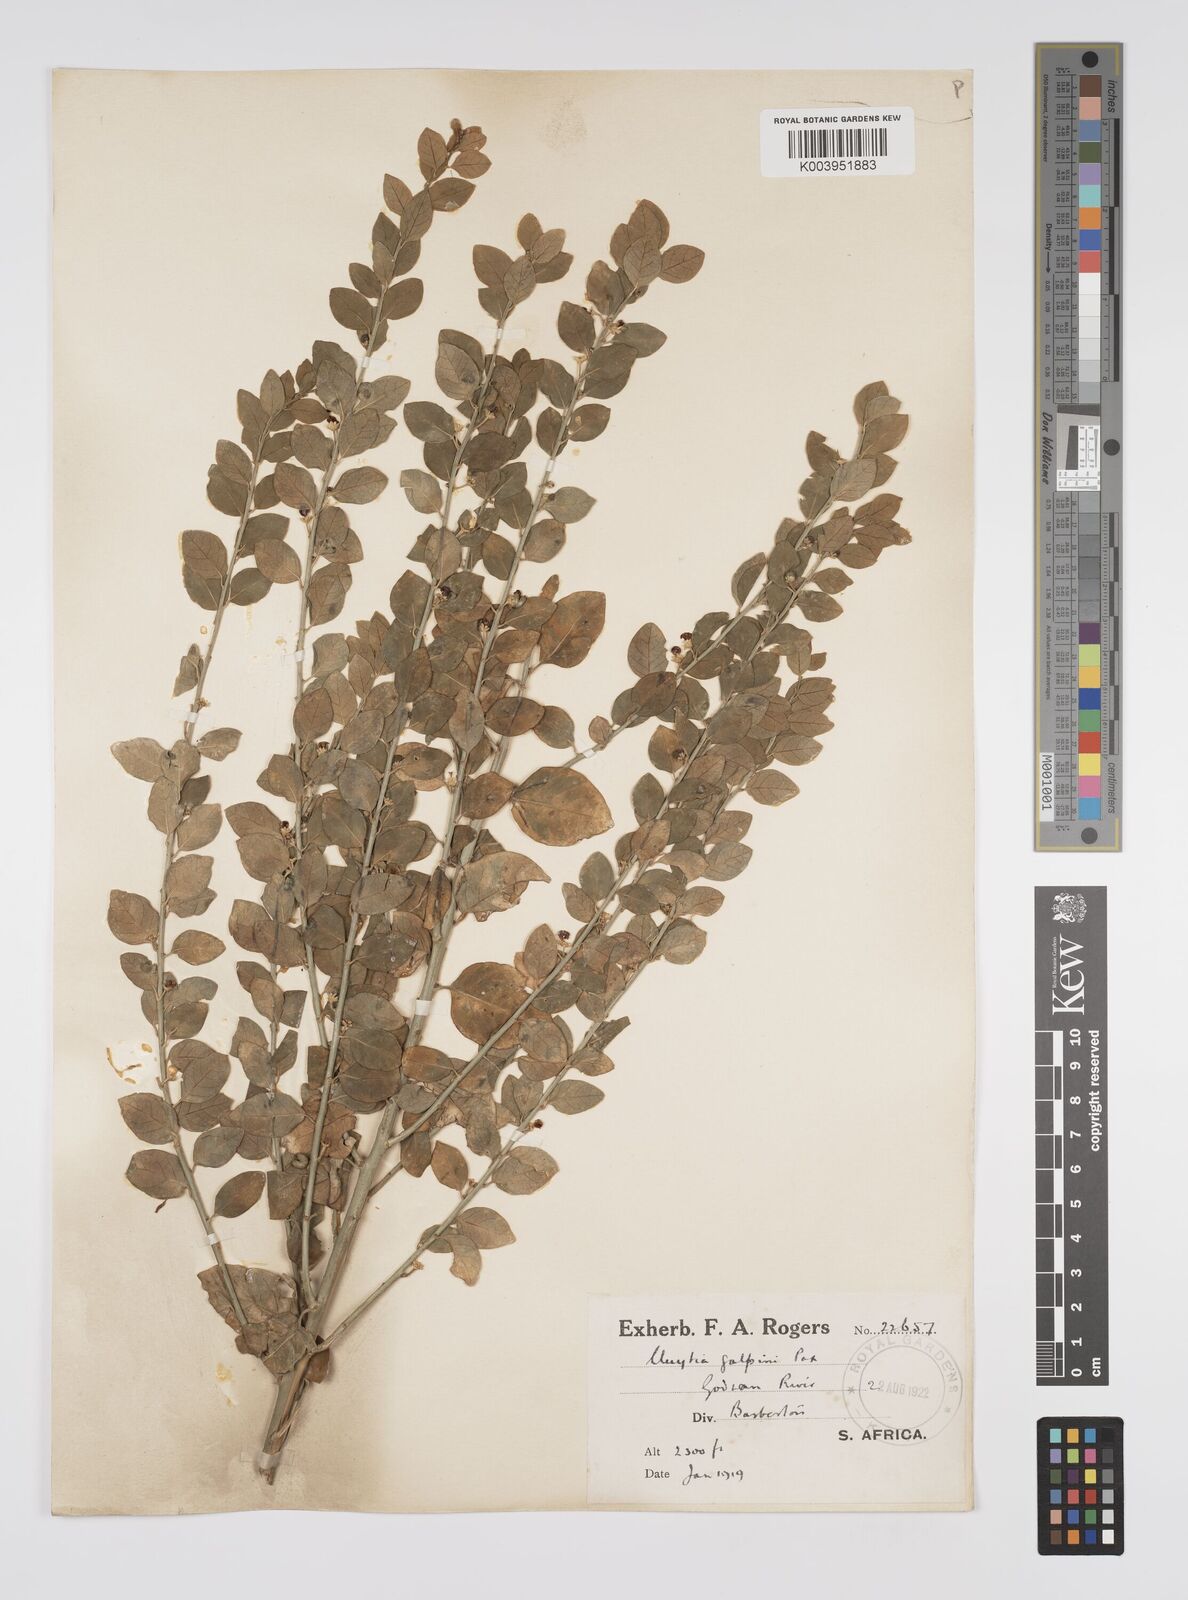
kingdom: Plantae
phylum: Tracheophyta
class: Magnoliopsida
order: Malpighiales
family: Peraceae
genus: Clutia
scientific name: Clutia galpinii
